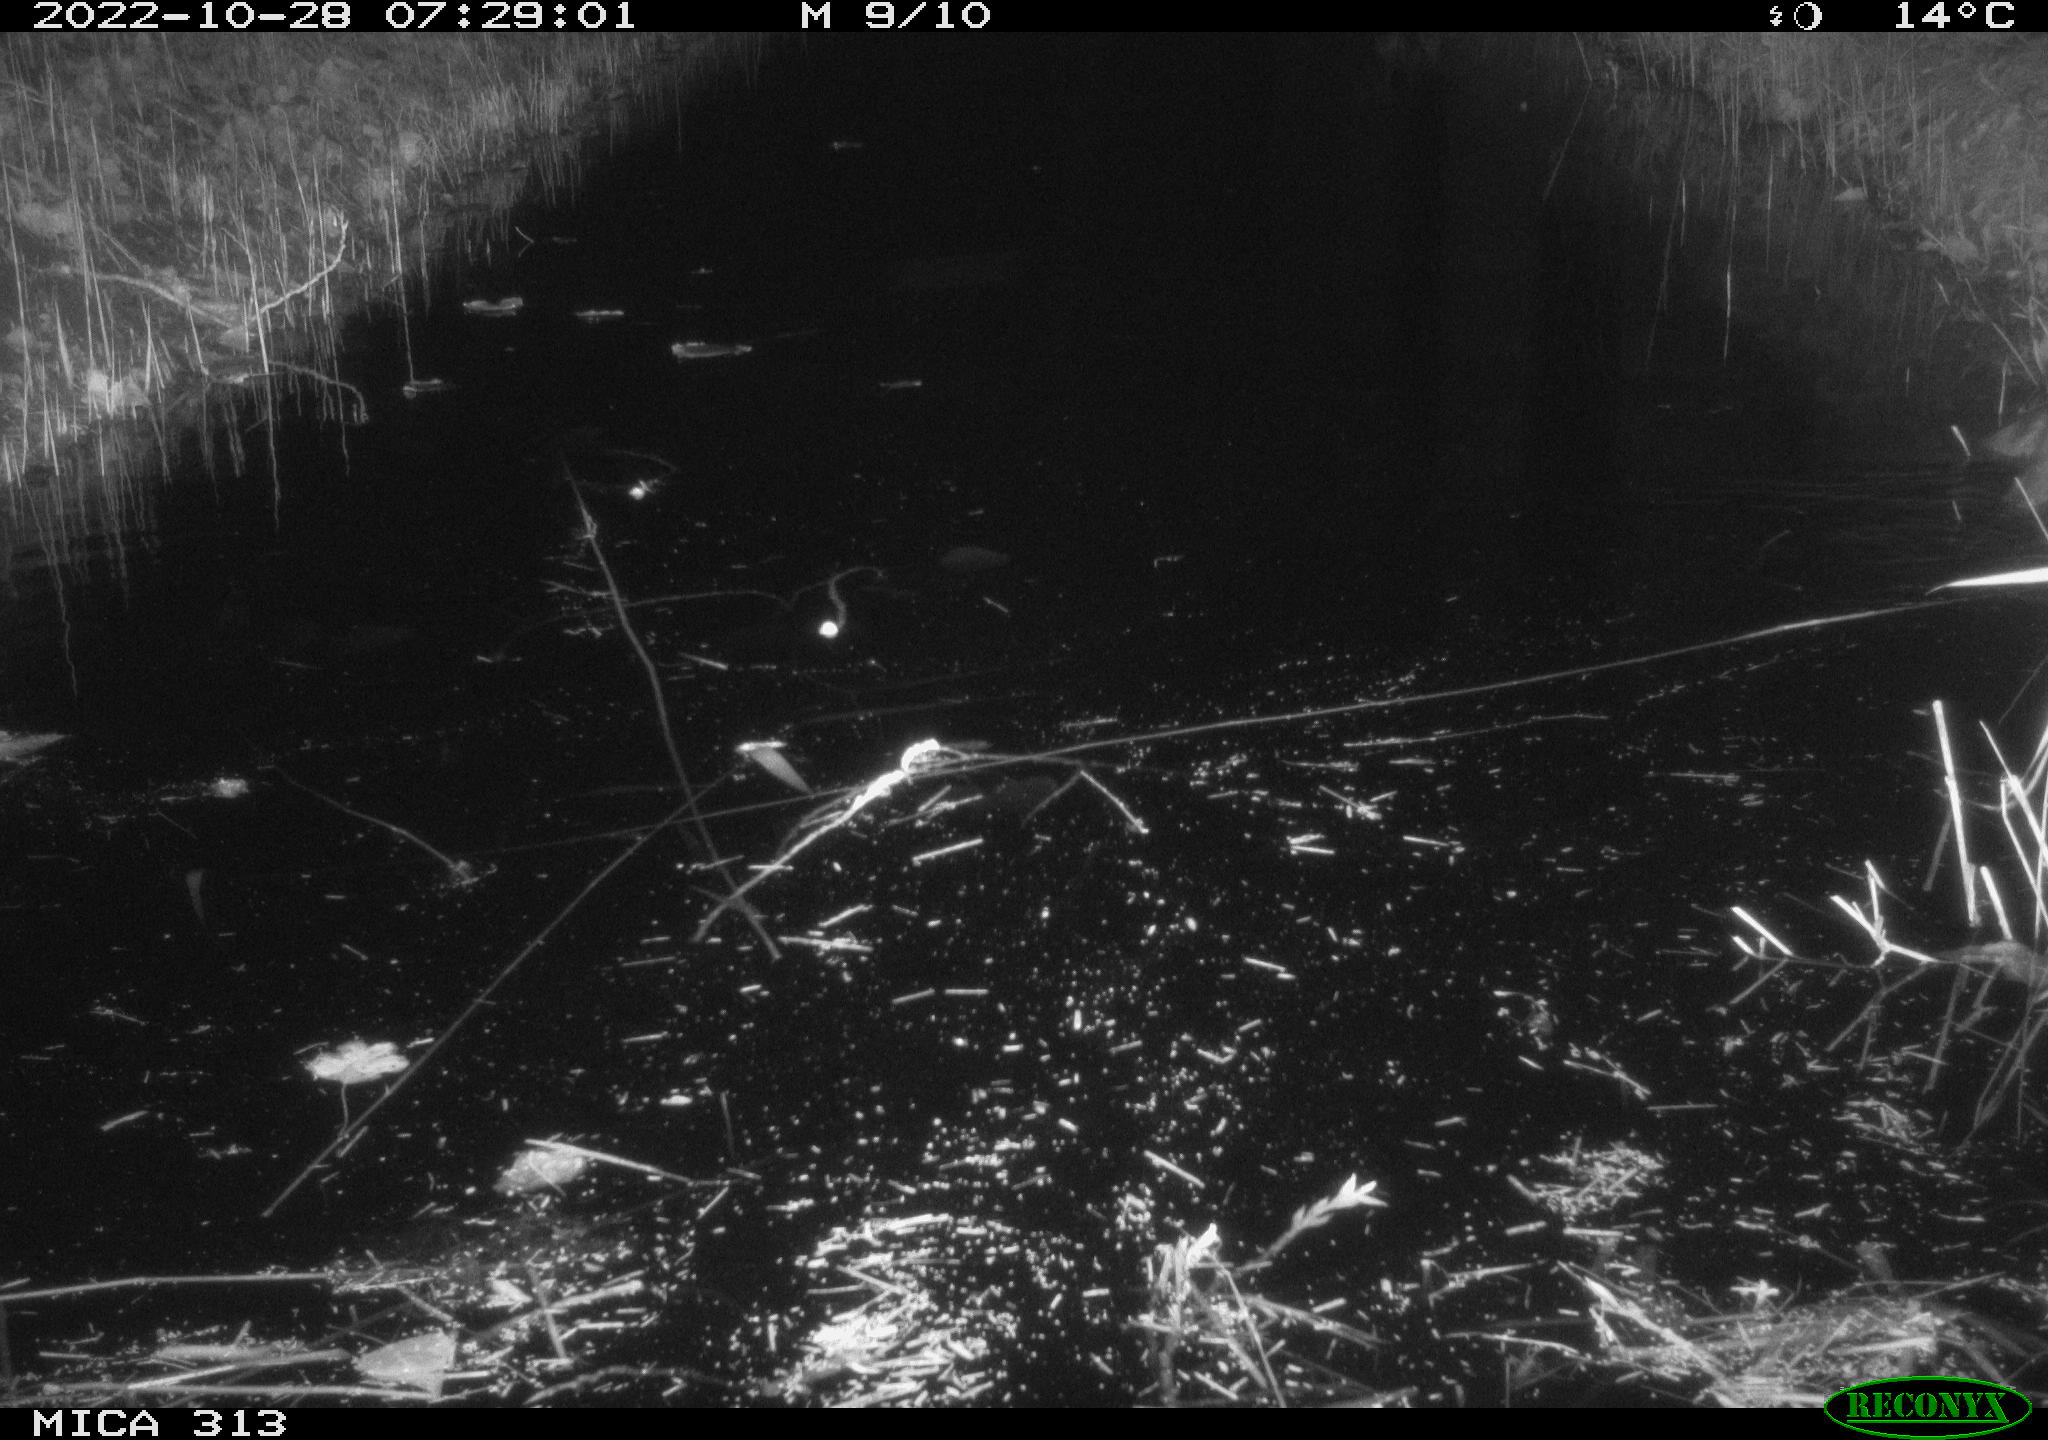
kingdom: Animalia
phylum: Chordata
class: Mammalia
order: Rodentia
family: Muridae
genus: Rattus
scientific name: Rattus norvegicus
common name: Brown rat
